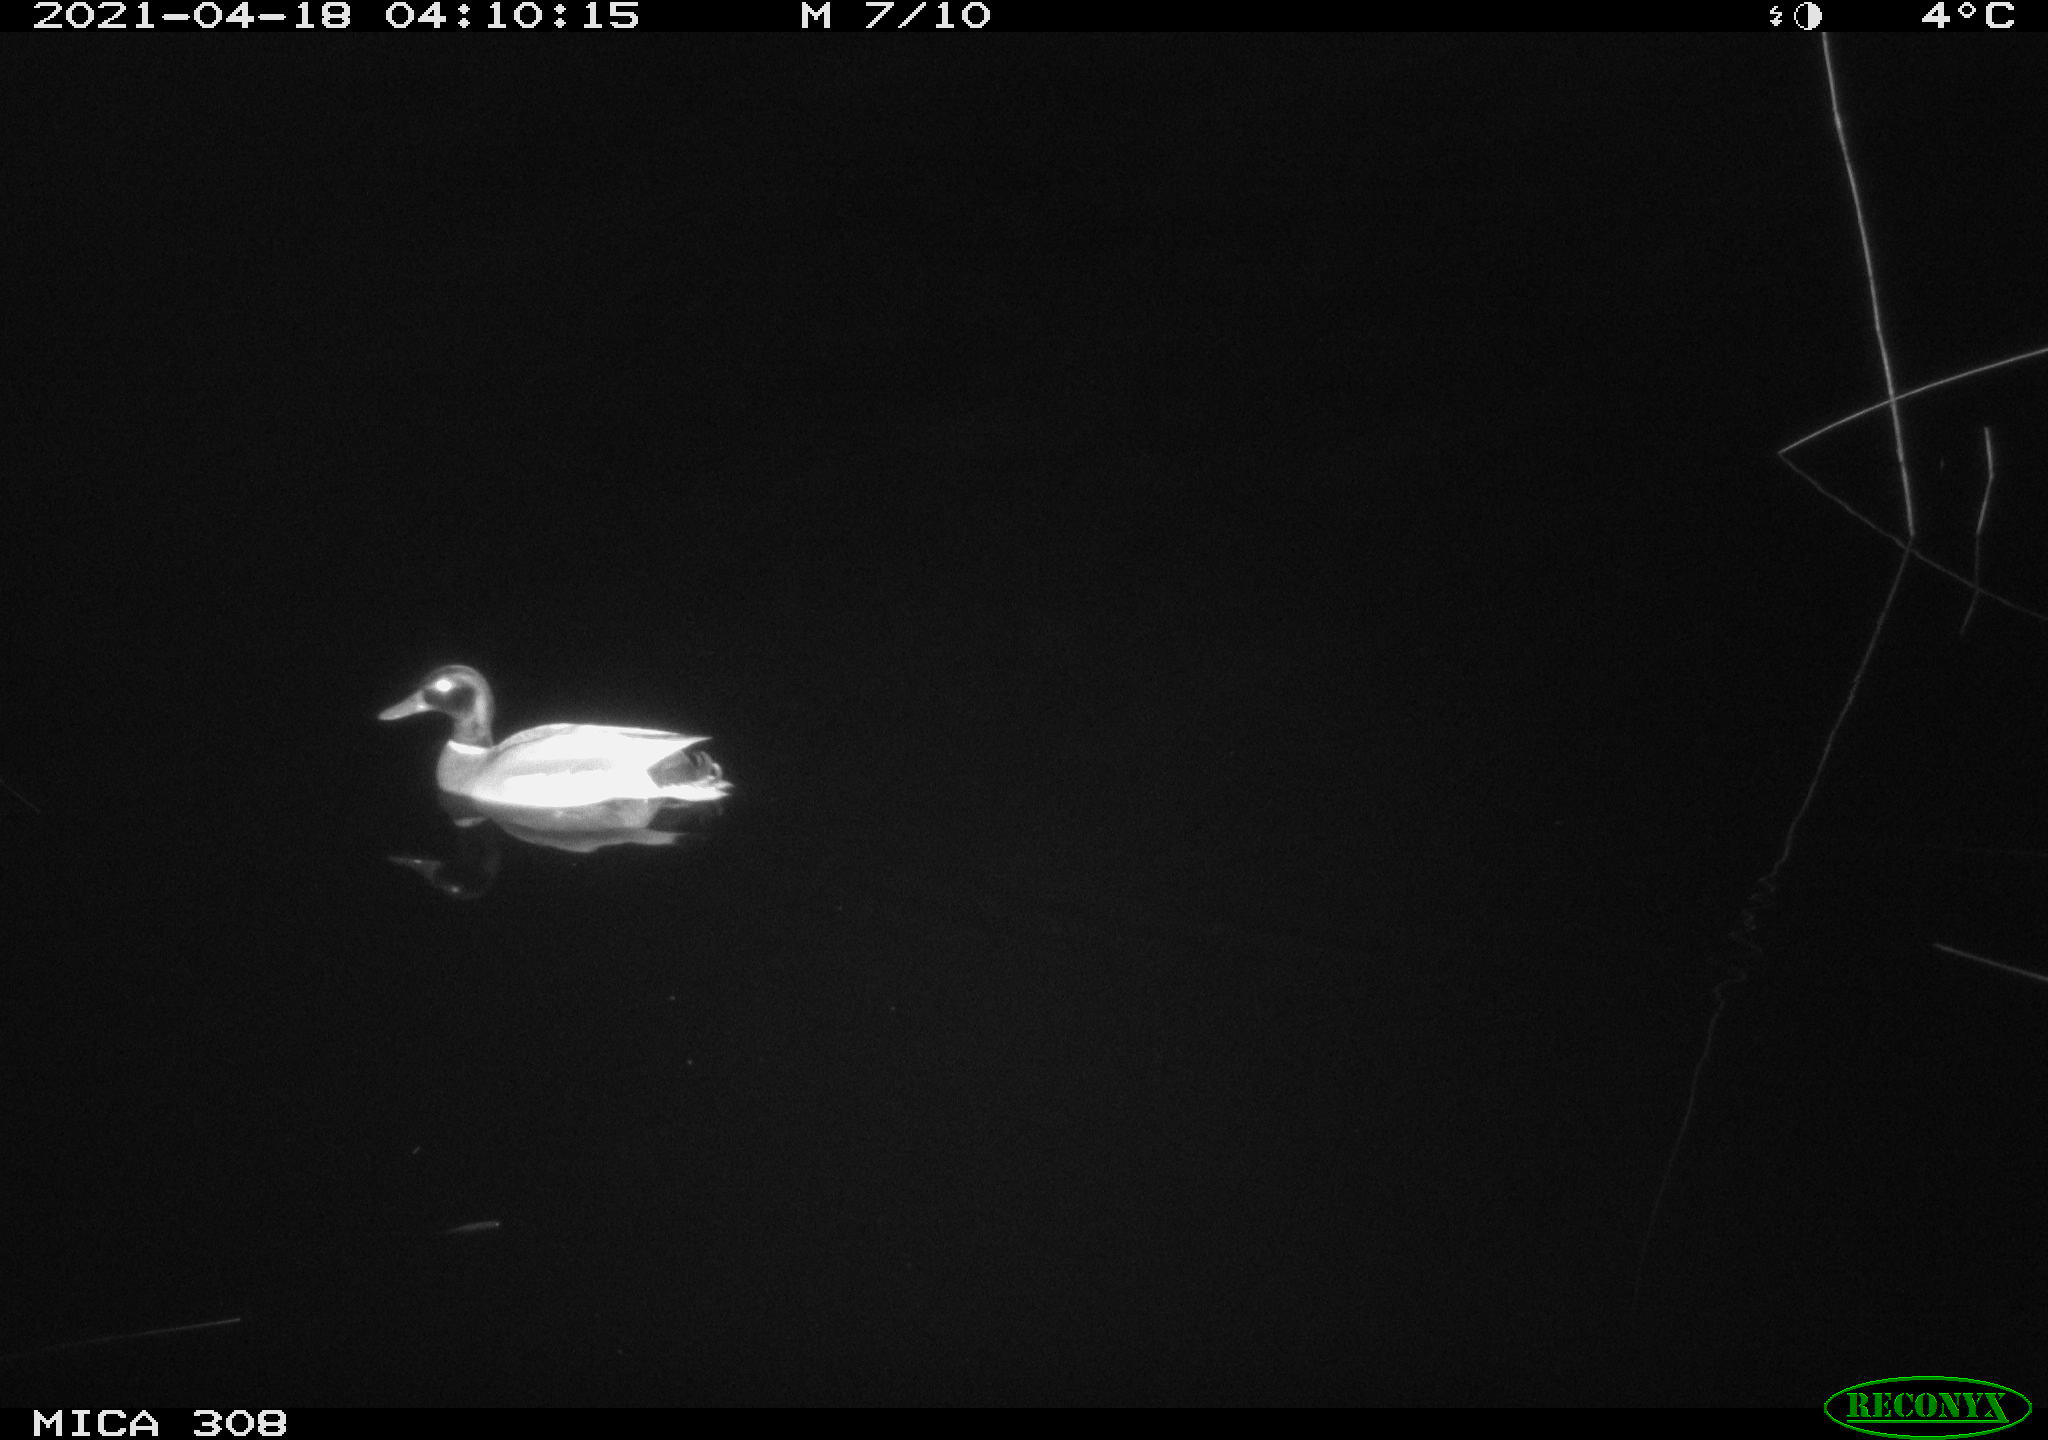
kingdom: Animalia
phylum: Chordata
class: Aves
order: Anseriformes
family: Anatidae
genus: Anas
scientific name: Anas platyrhynchos
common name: Mallard
